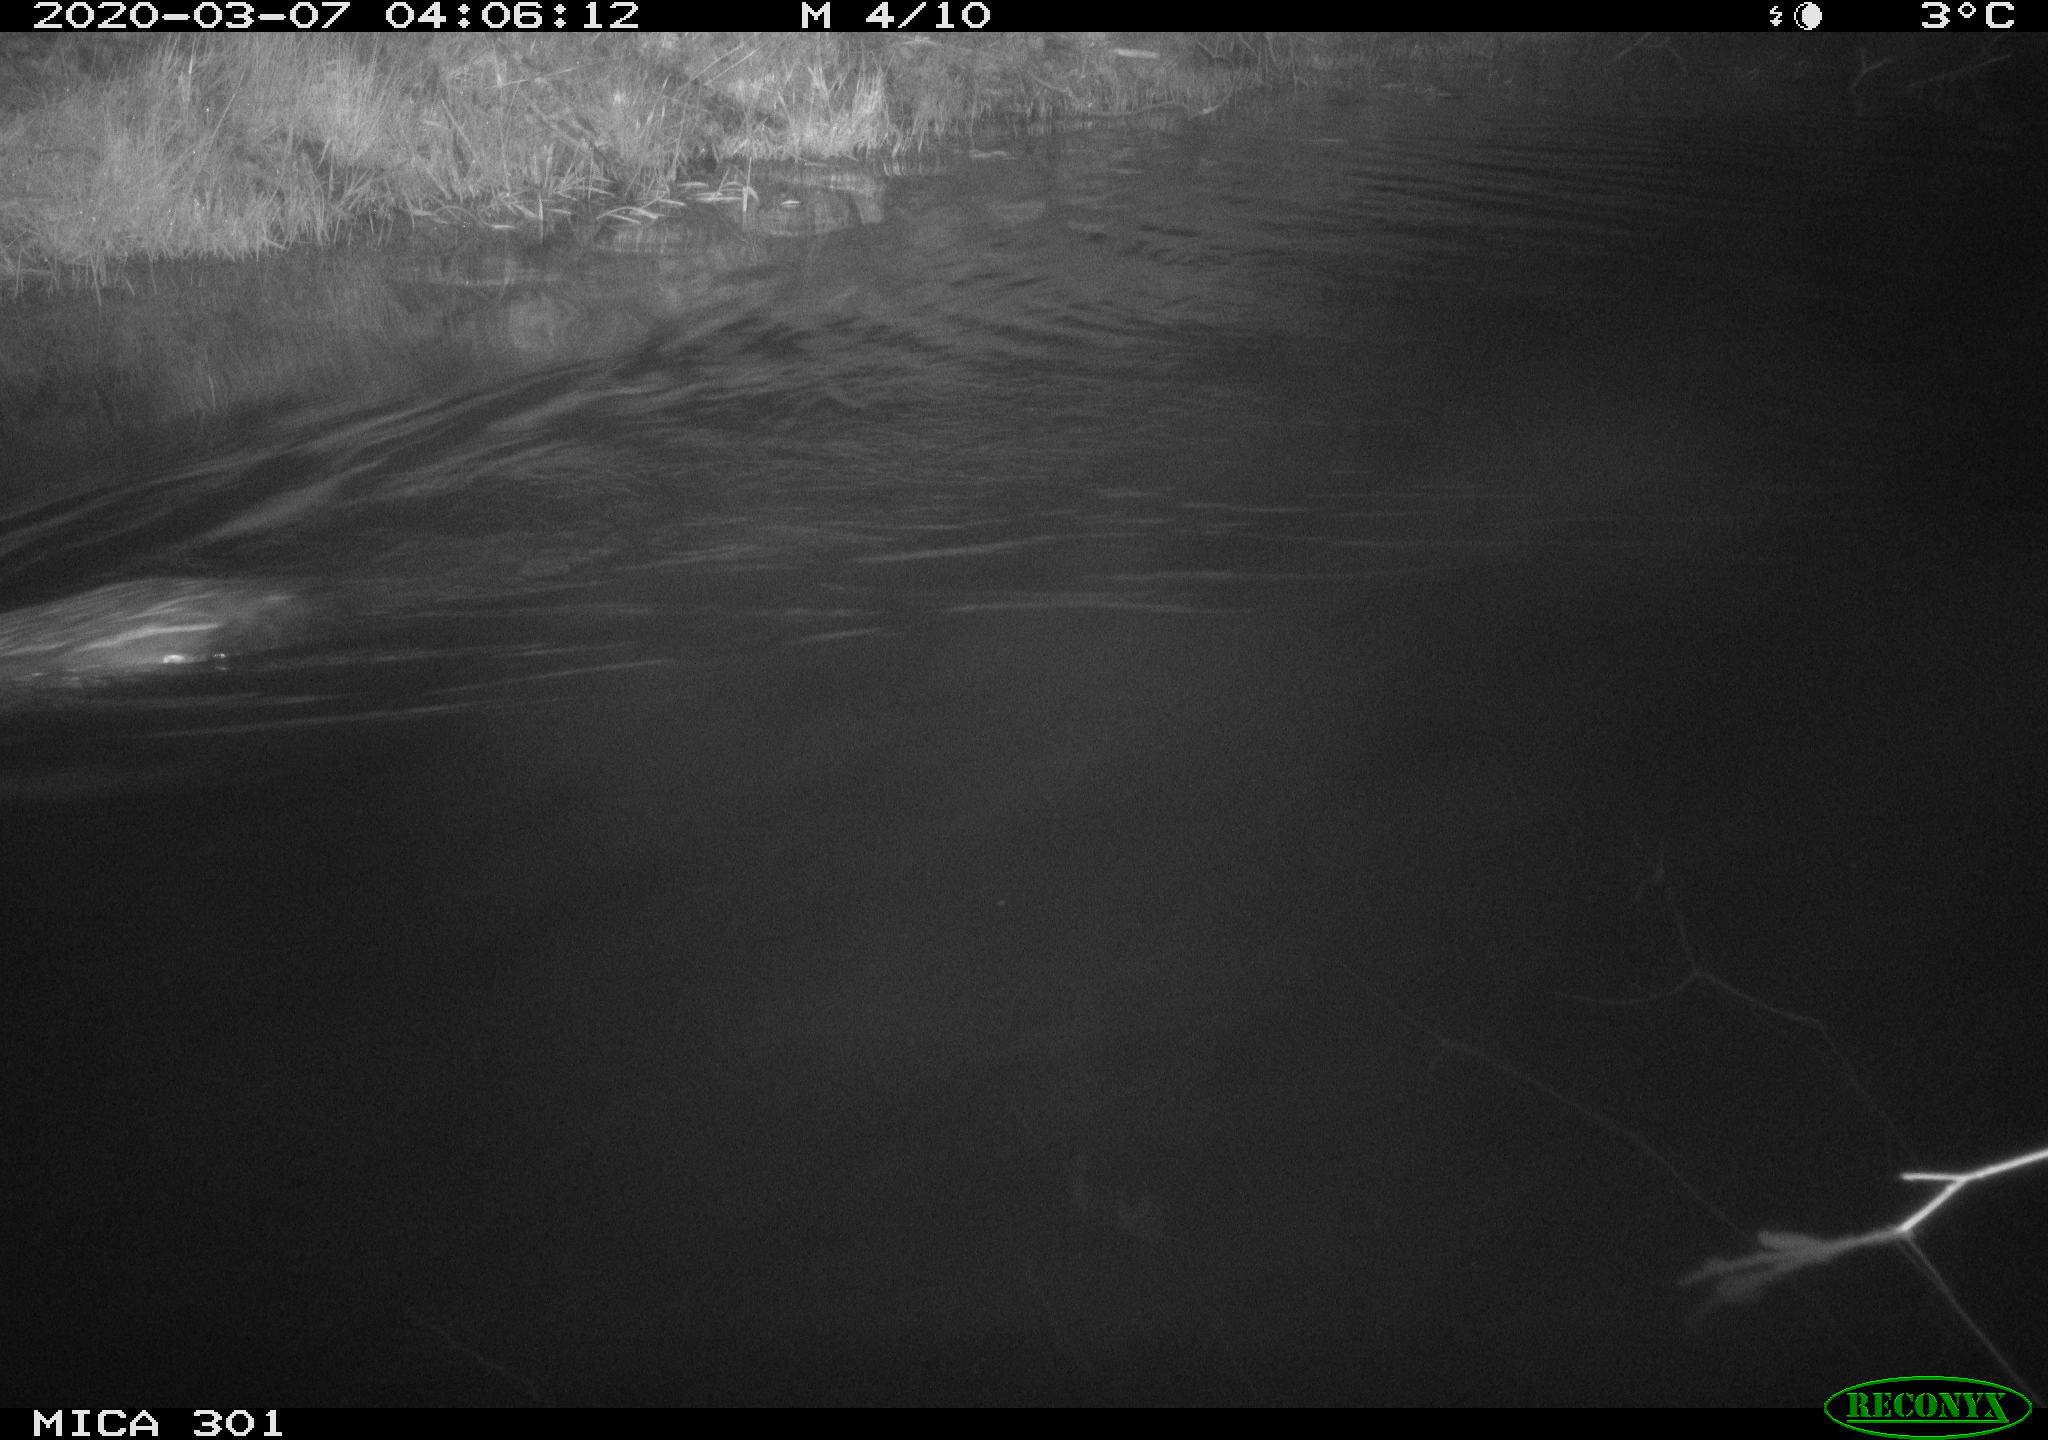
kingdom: Animalia
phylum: Chordata
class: Mammalia
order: Rodentia
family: Castoridae
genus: Castor
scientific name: Castor fiber
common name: Eurasian beaver
